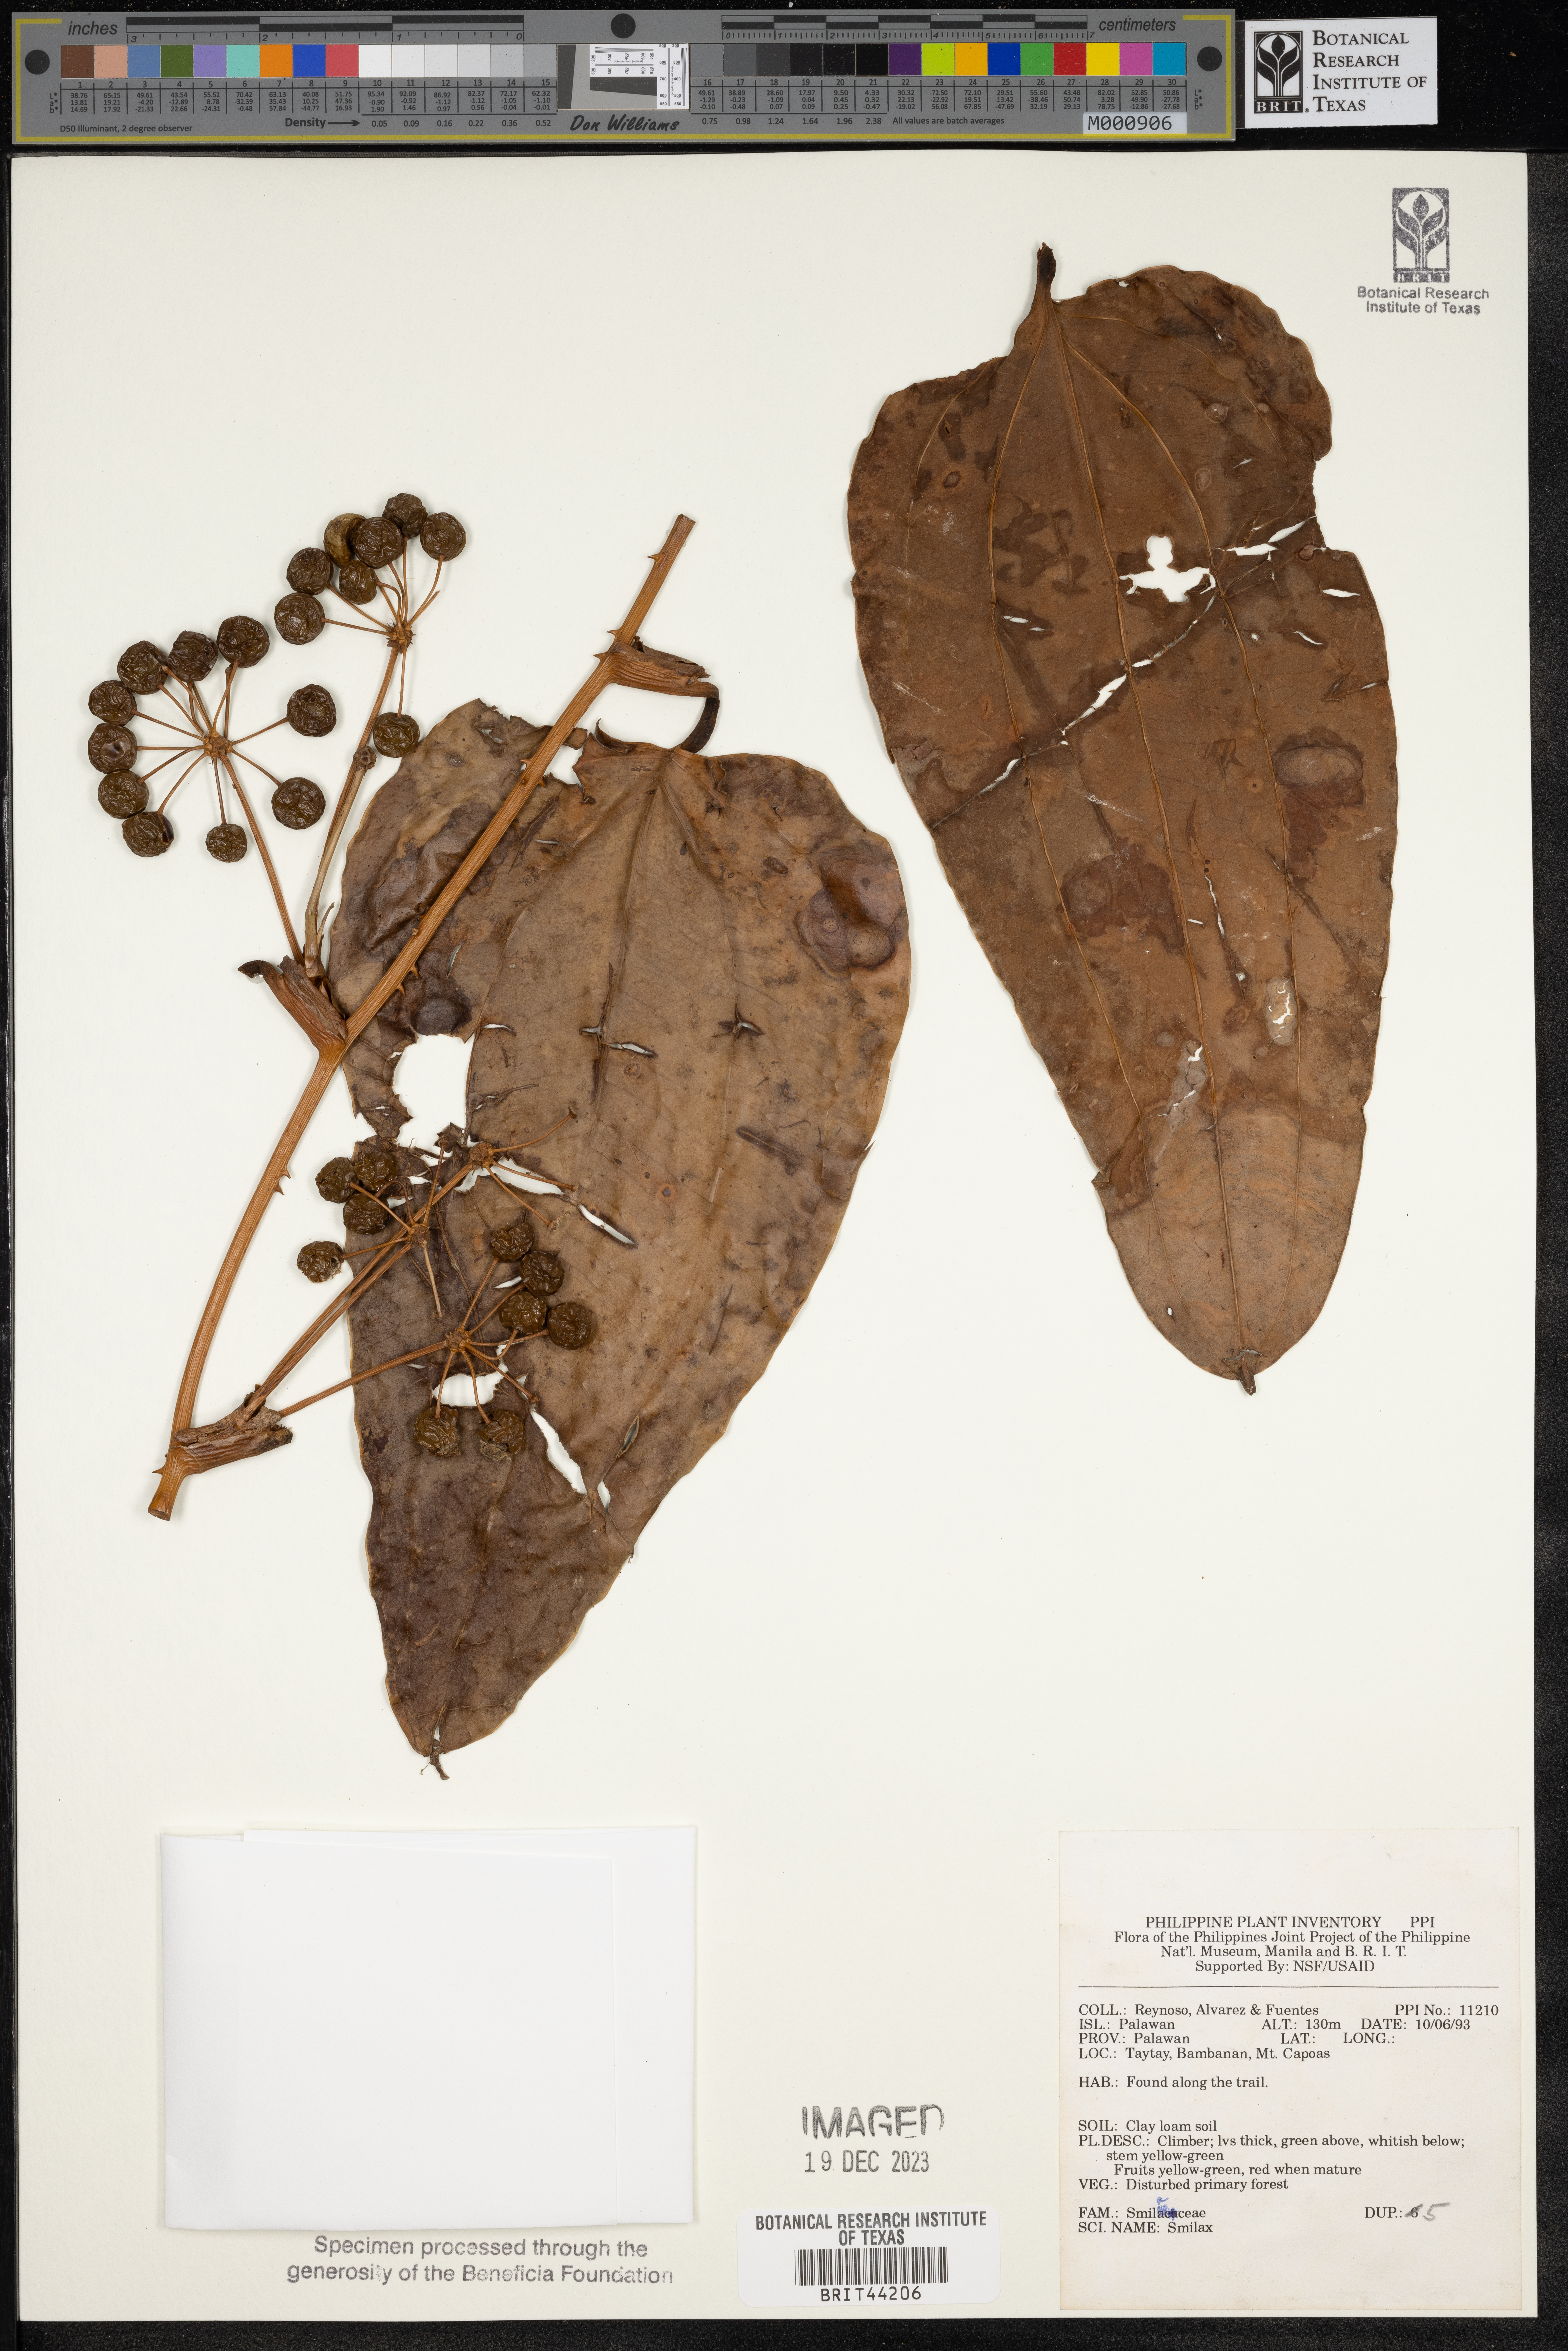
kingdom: Plantae
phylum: Tracheophyta
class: Liliopsida
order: Liliales
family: Smilacaceae
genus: Smilax
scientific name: Smilax
